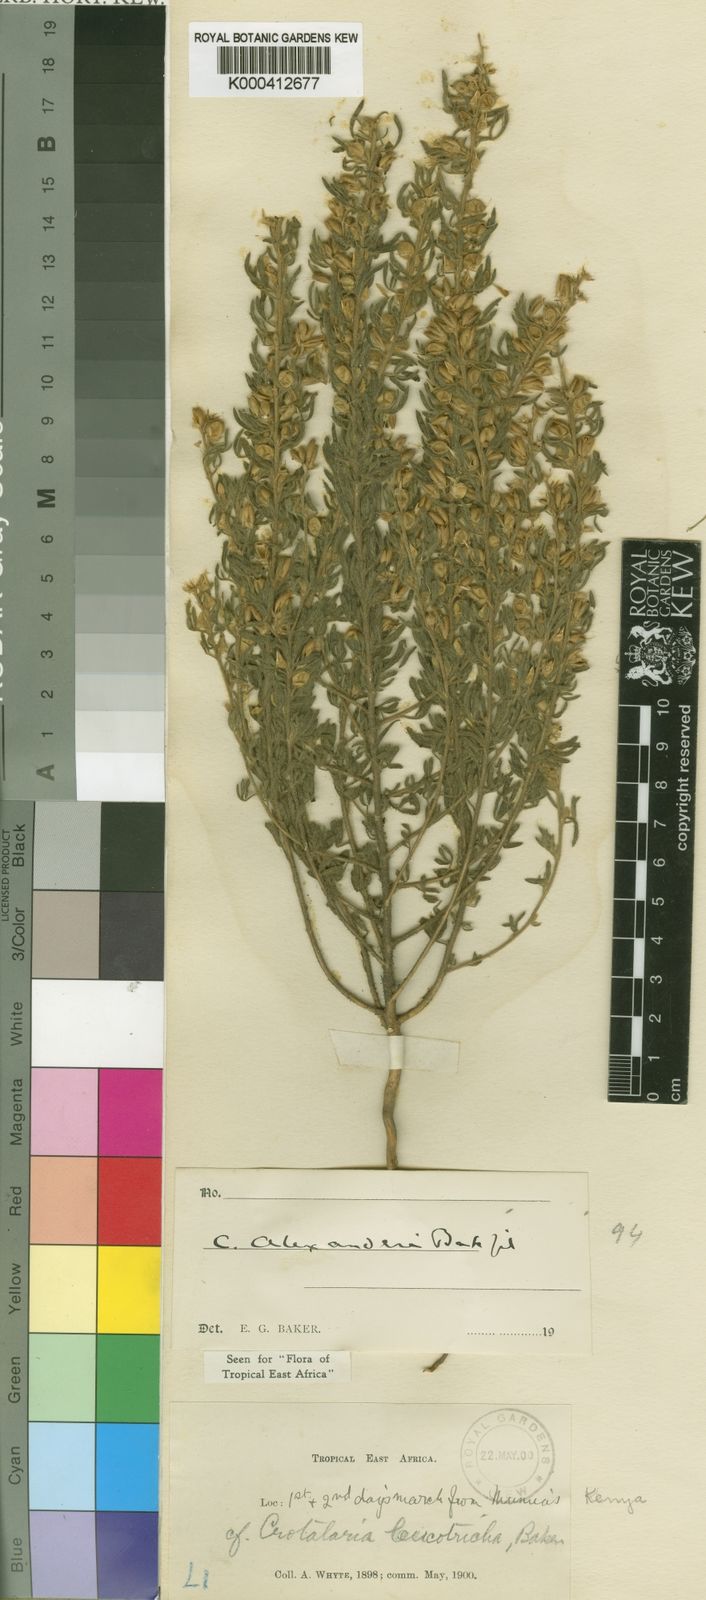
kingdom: Plantae
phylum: Tracheophyta
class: Magnoliopsida
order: Fabales
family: Fabaceae
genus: Crotalaria
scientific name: Crotalaria alexandri
